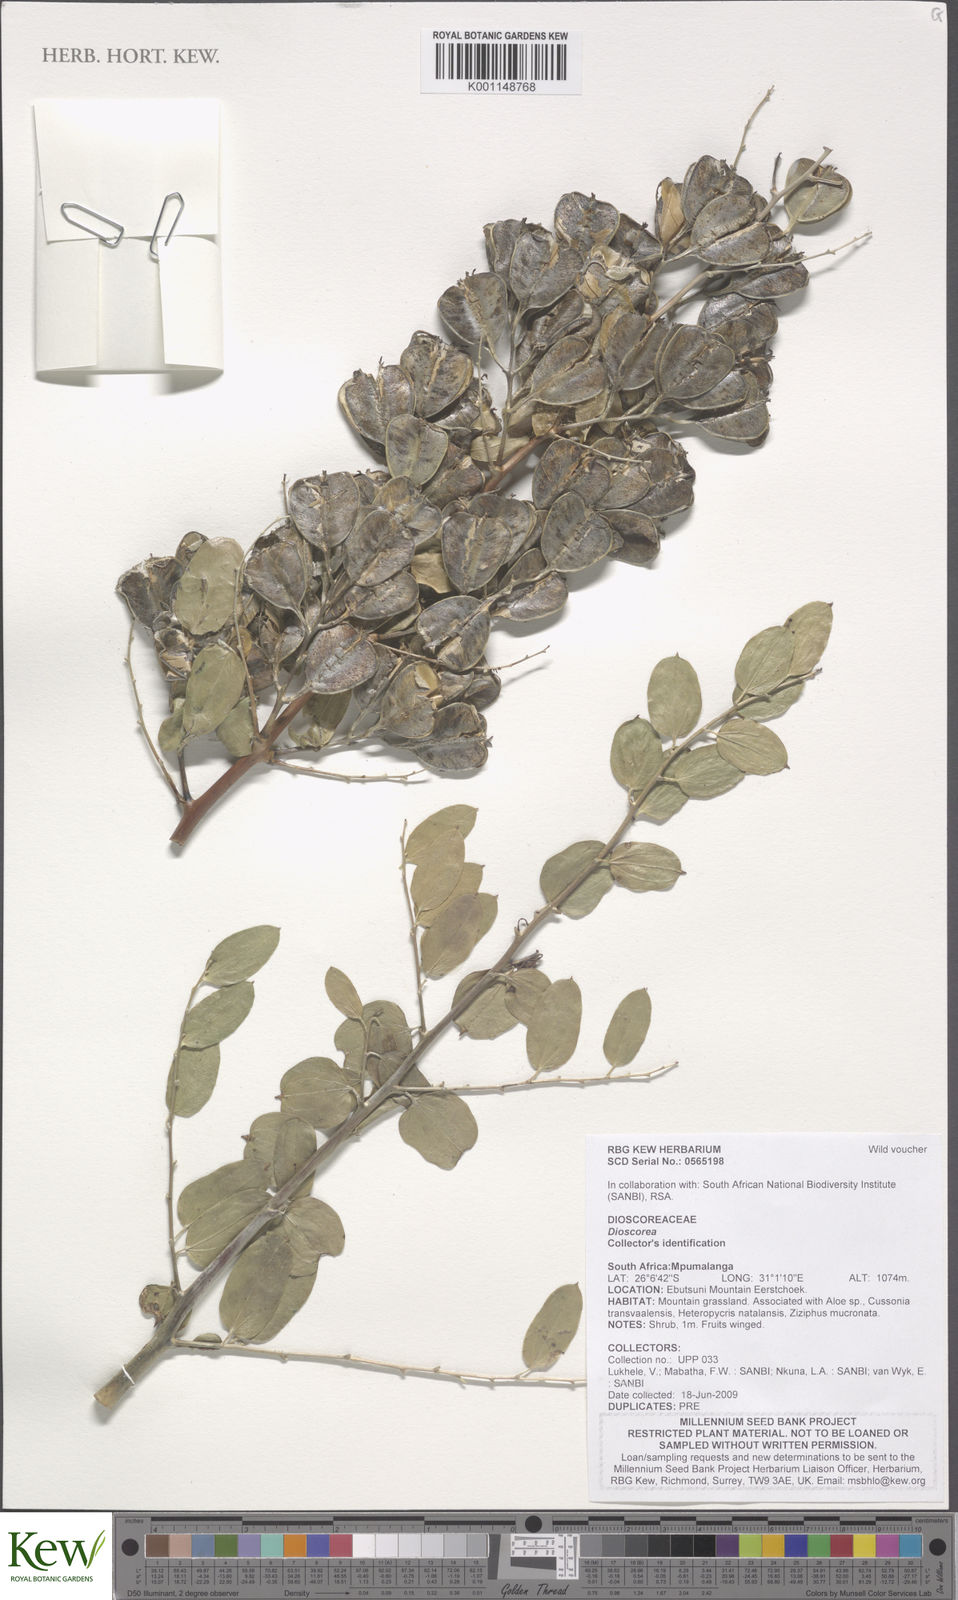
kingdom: Plantae
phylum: Tracheophyta
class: Liliopsida
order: Dioscoreales
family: Dioscoreaceae
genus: Dioscorea
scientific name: Dioscorea strydomiana
